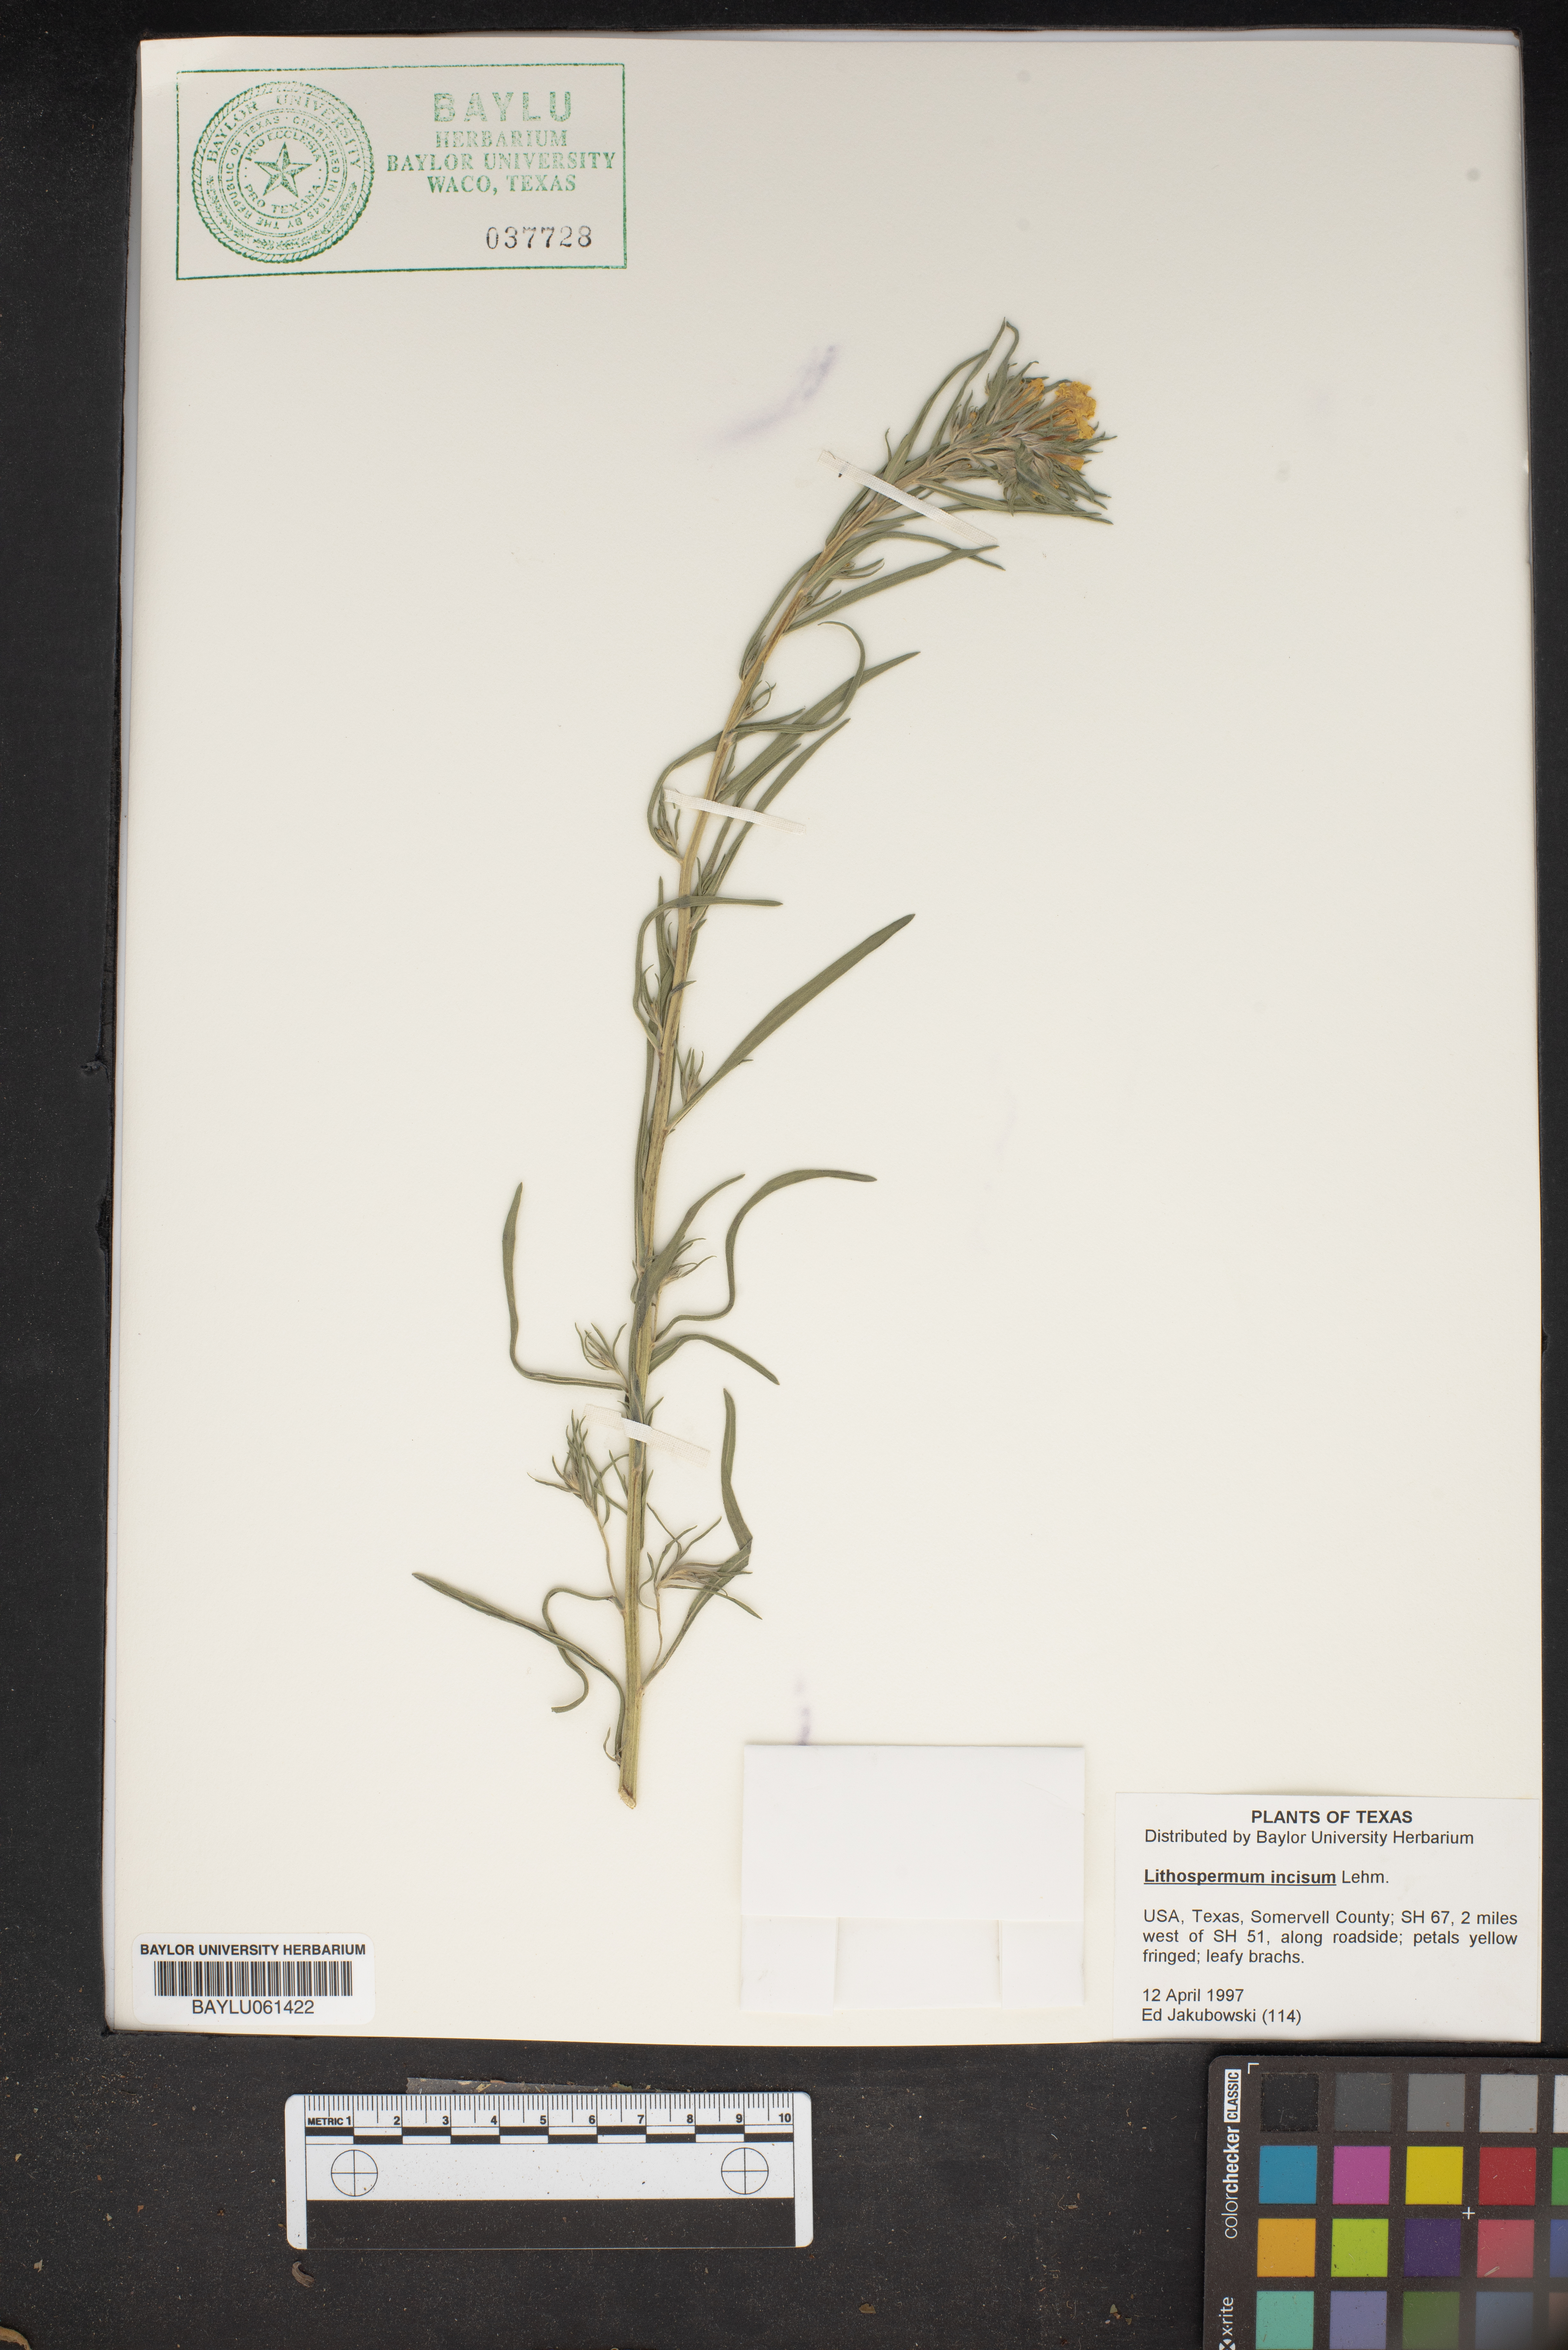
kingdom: Plantae
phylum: Tracheophyta
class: Magnoliopsida
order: Boraginales
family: Boraginaceae
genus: Lithospermum
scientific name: Lithospermum incisum
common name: Fringed gromwell
